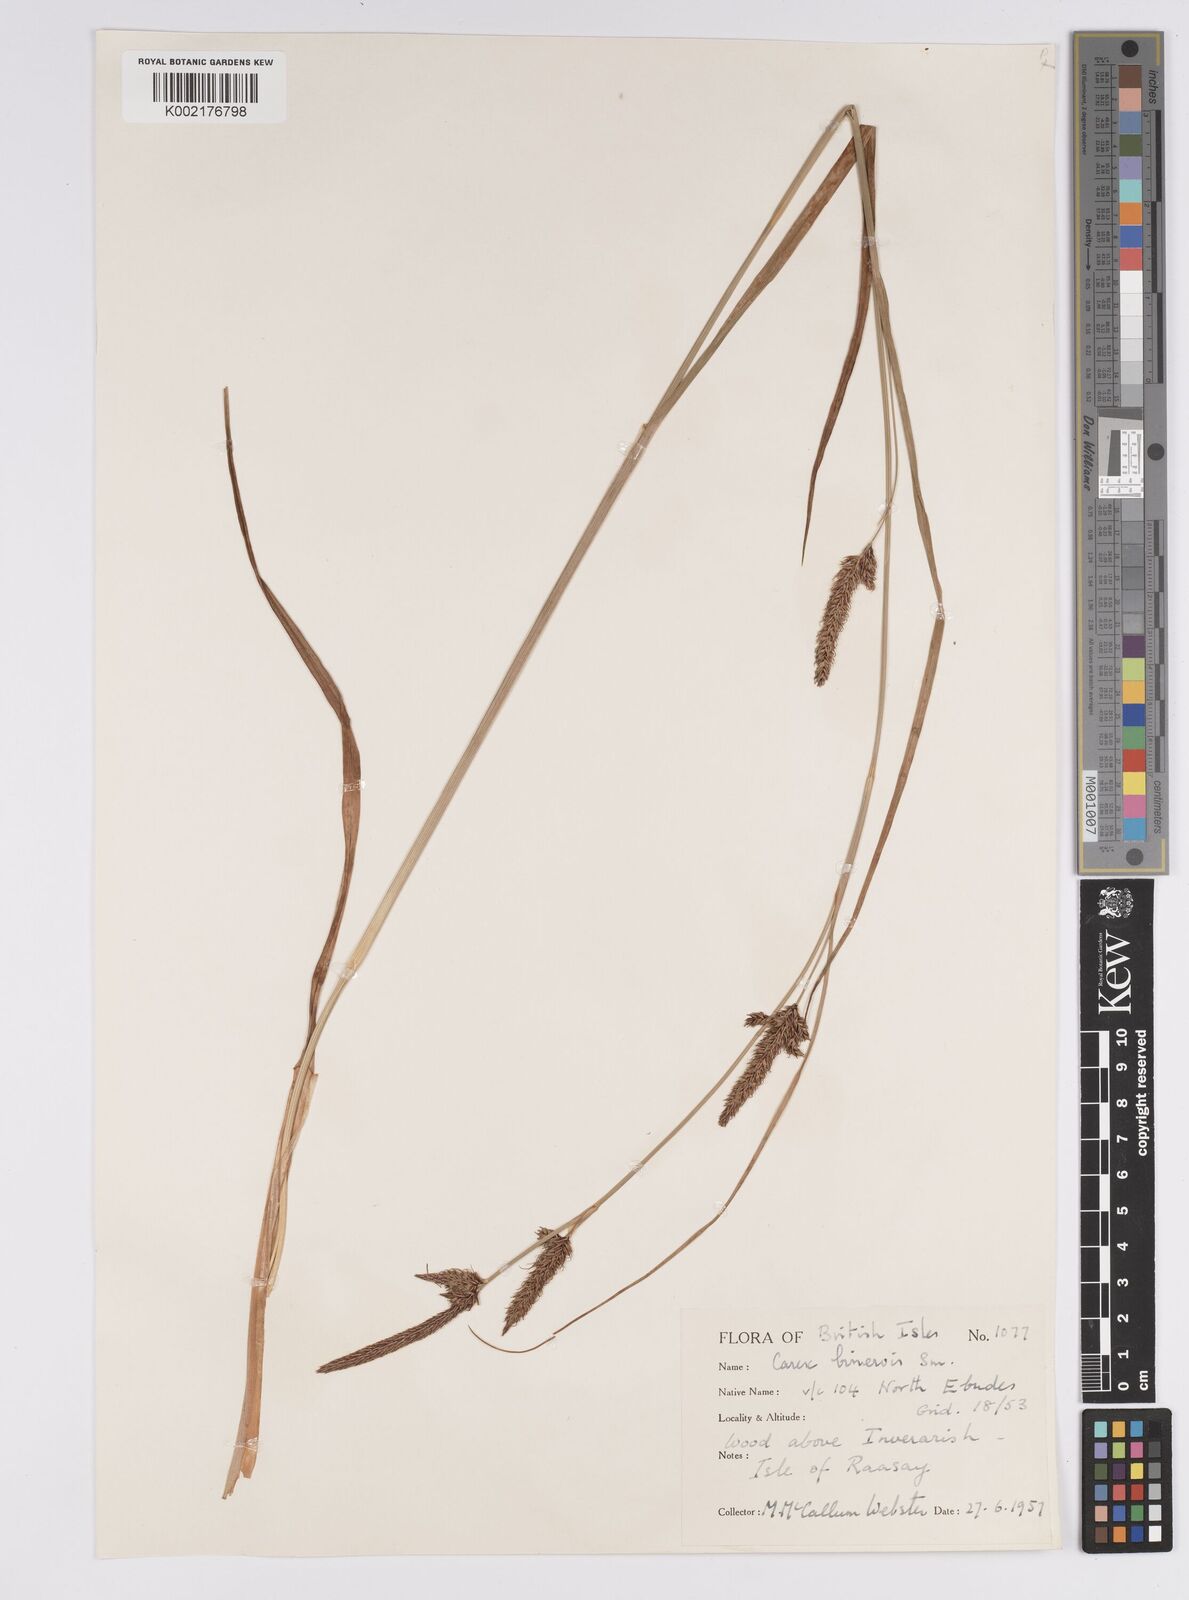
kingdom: Plantae
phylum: Tracheophyta
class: Liliopsida
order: Poales
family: Cyperaceae
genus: Carex
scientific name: Carex binervis
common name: Green-ribbed sedge
